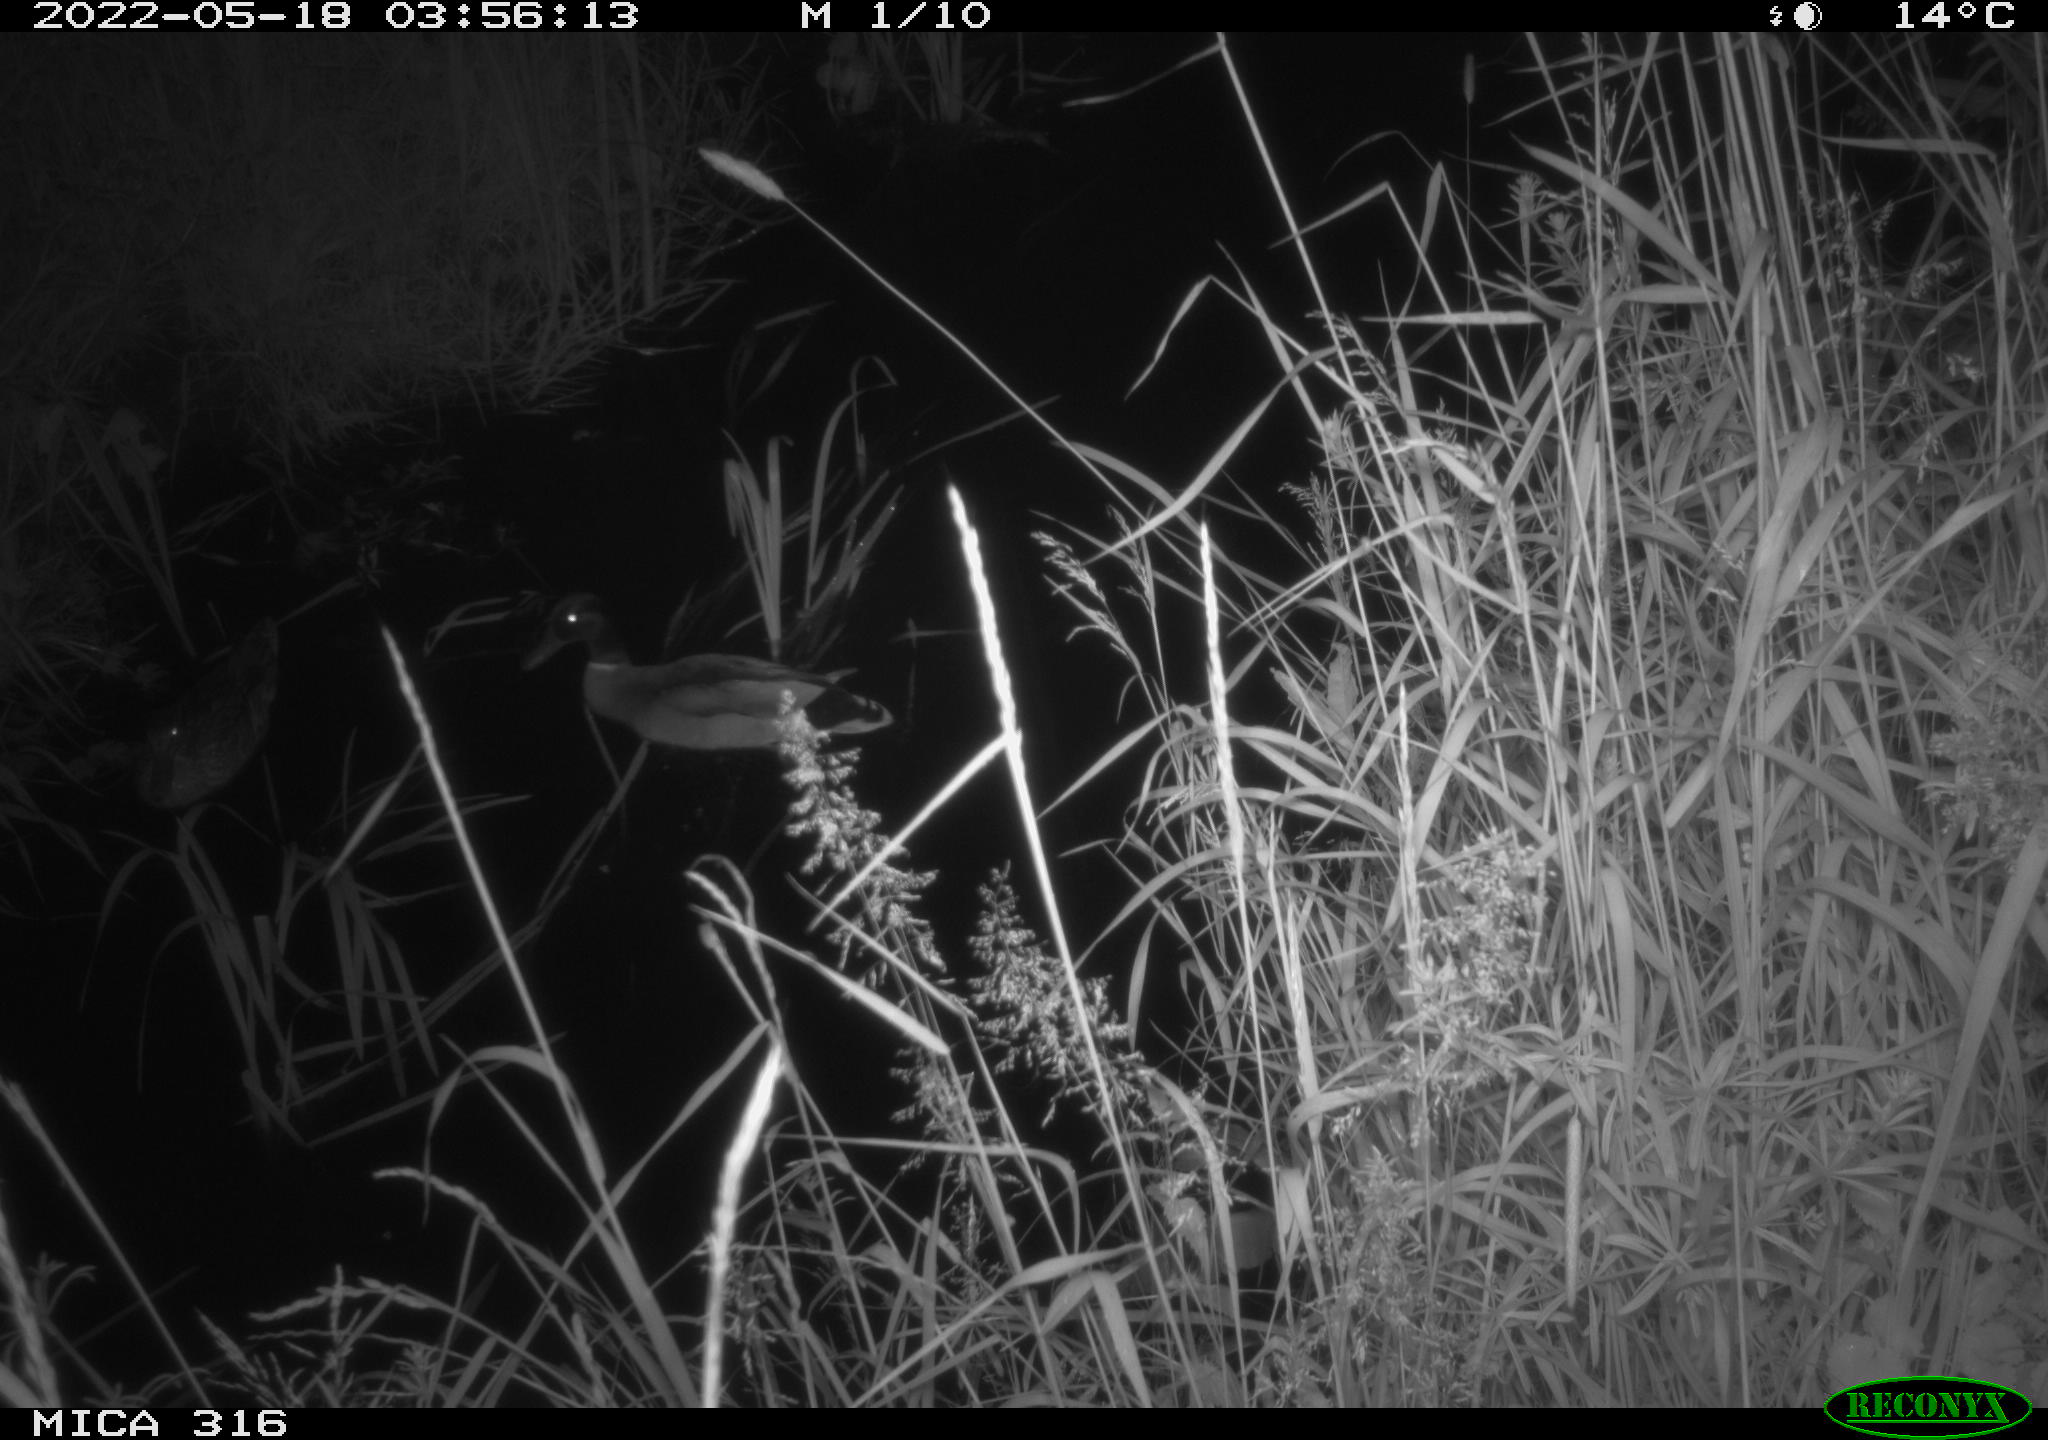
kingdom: Animalia
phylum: Chordata
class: Aves
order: Anseriformes
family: Anatidae
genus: Anas
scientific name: Anas
